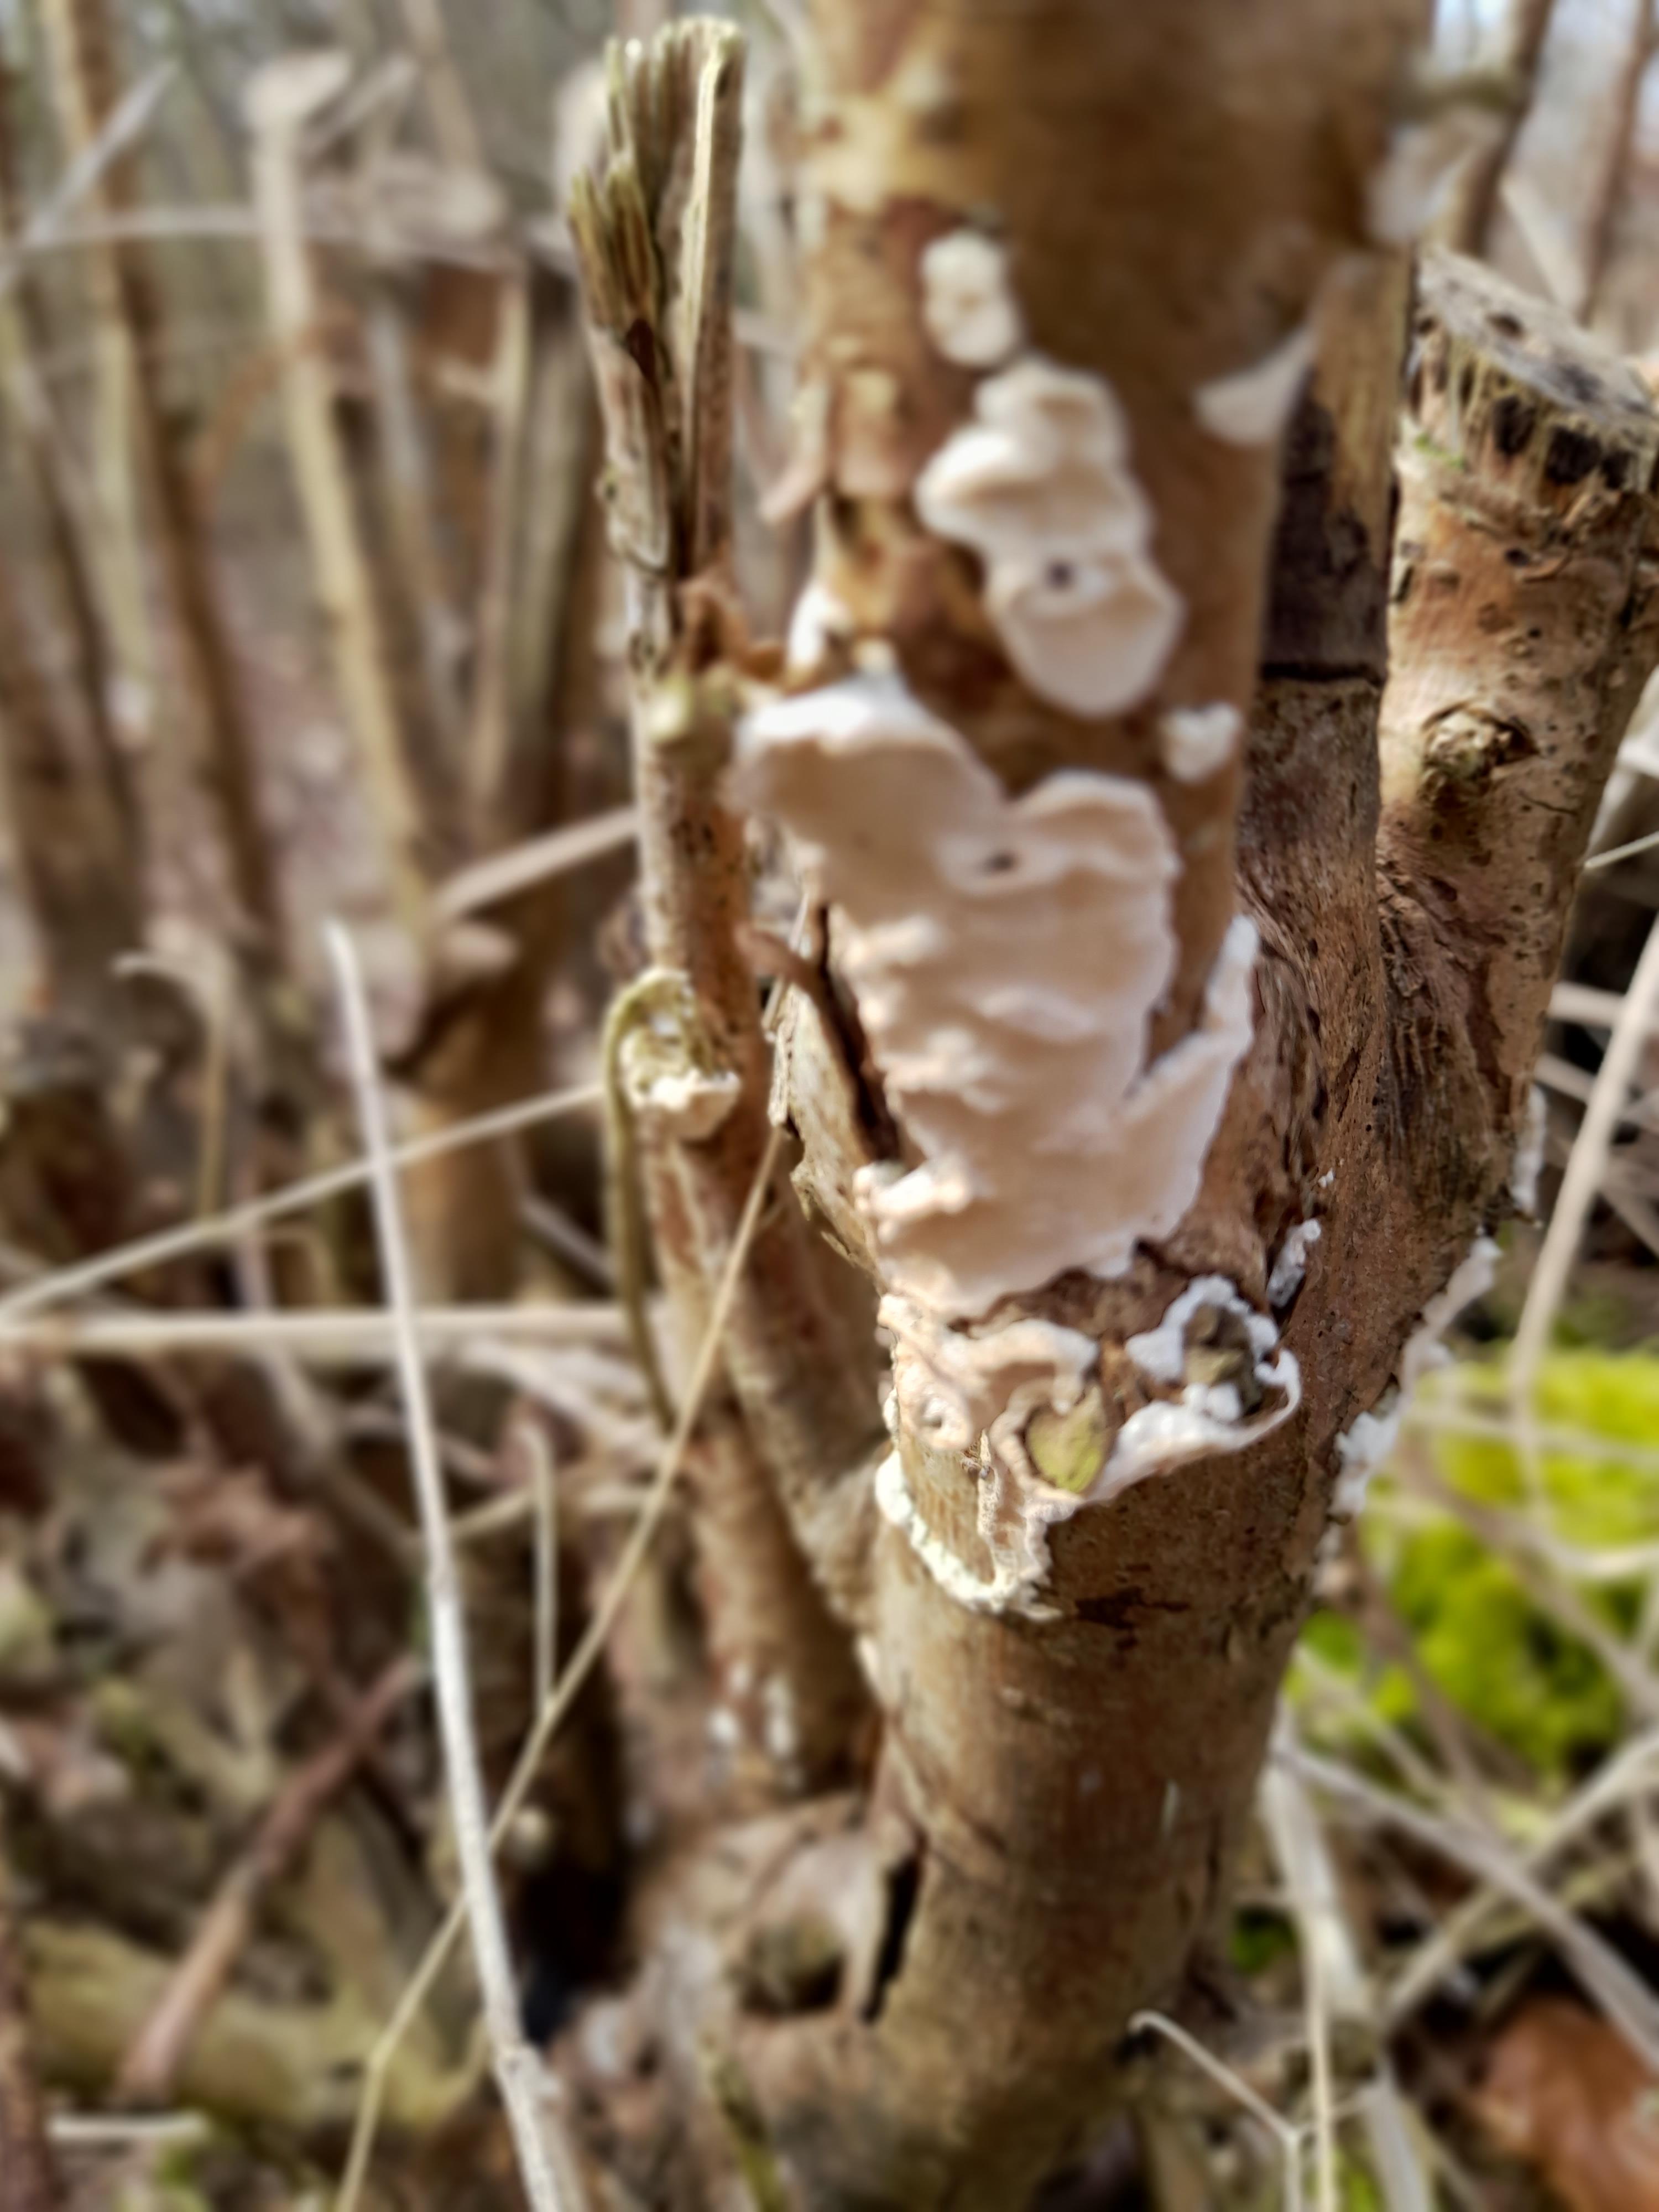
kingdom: Fungi
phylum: Basidiomycota
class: Agaricomycetes
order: Polyporales
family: Irpicaceae
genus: Byssomerulius
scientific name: Byssomerulius corium
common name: læder-åresvamp
